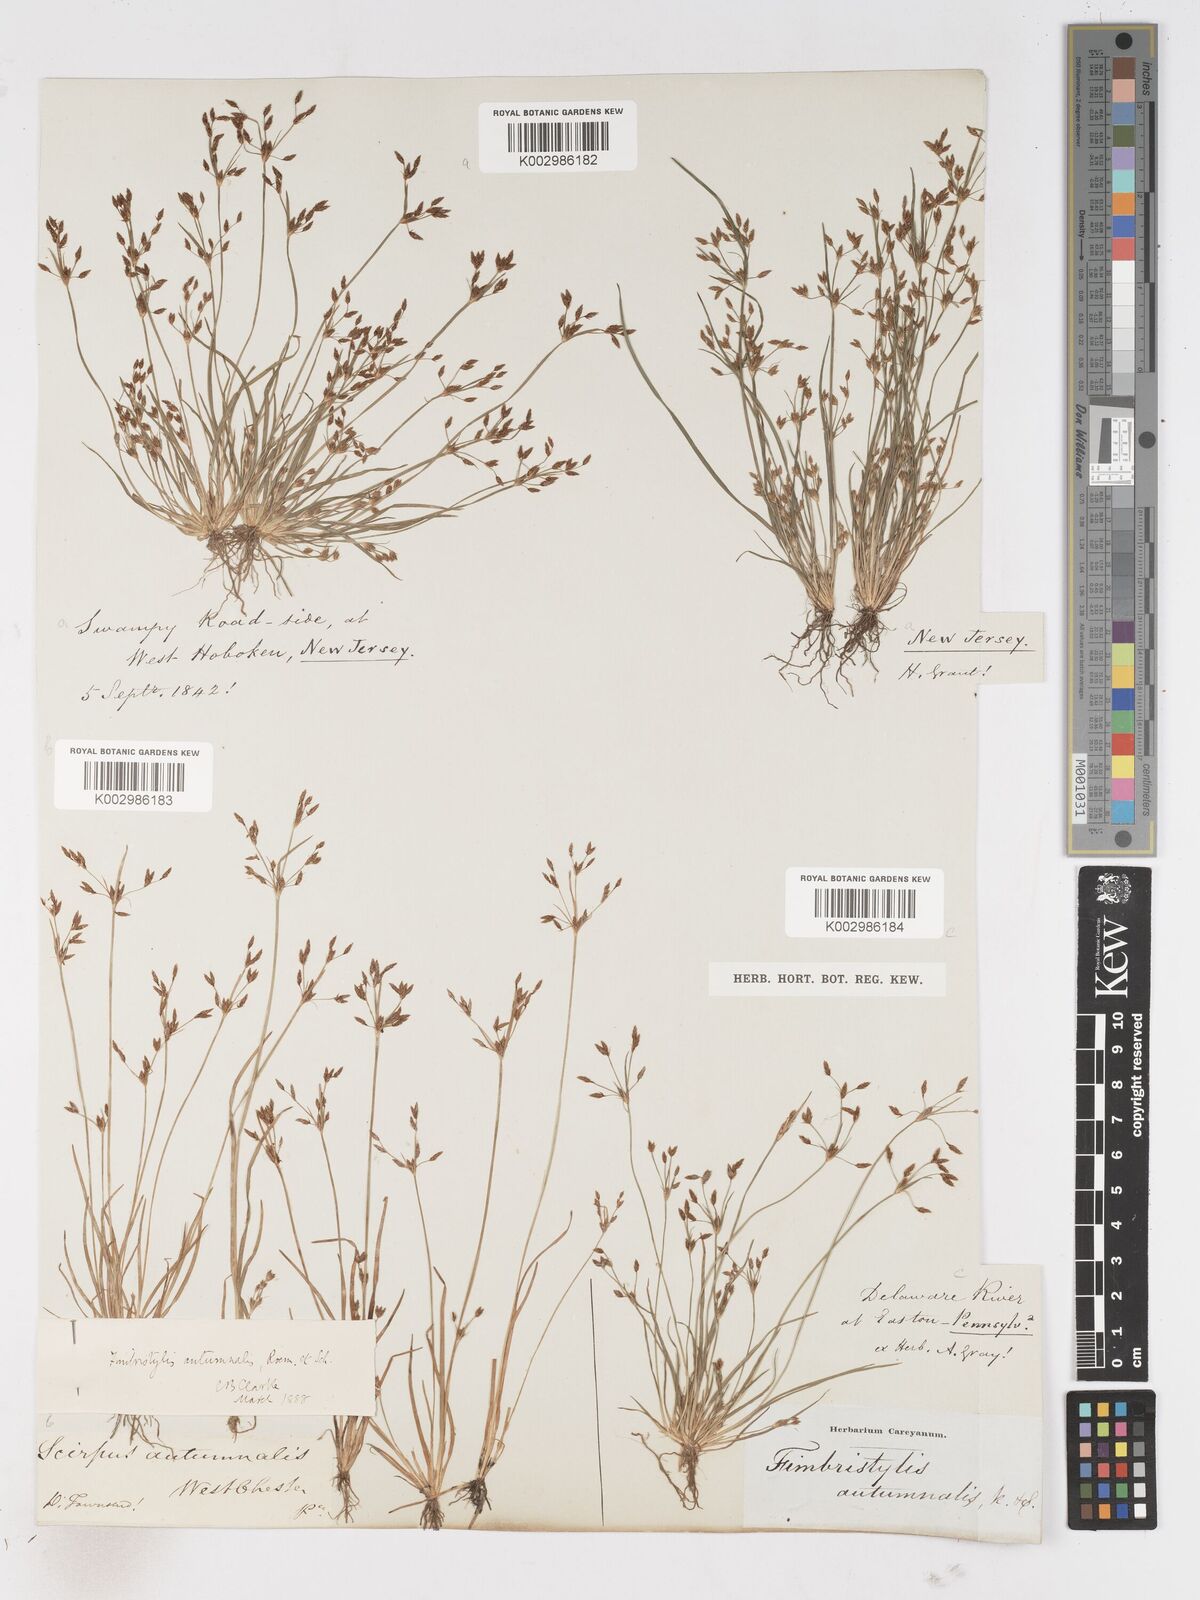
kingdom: Plantae
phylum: Tracheophyta
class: Liliopsida
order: Poales
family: Cyperaceae
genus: Fimbristylis
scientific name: Fimbristylis autumnalis
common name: Slender fimbristylis
